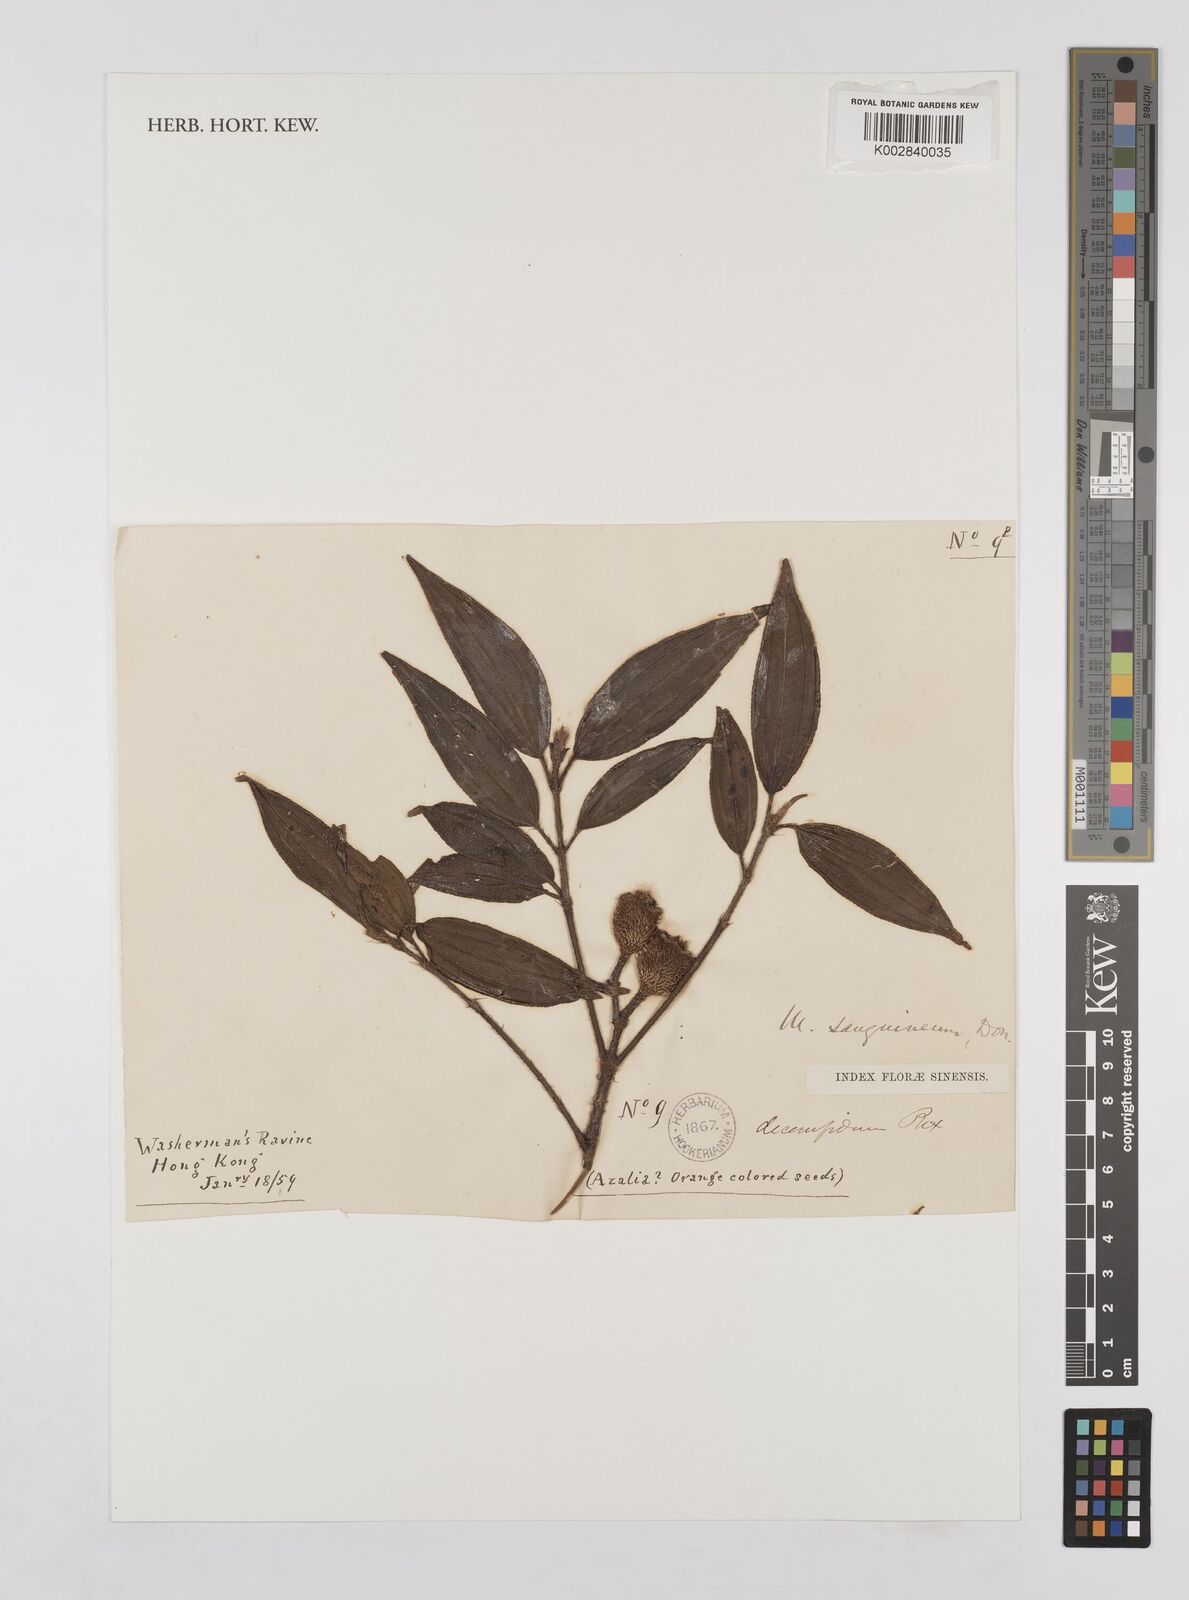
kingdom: Plantae
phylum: Tracheophyta
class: Magnoliopsida
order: Myrtales
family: Melastomataceae
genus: Melastoma
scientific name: Melastoma sanguineum
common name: Red melastome
